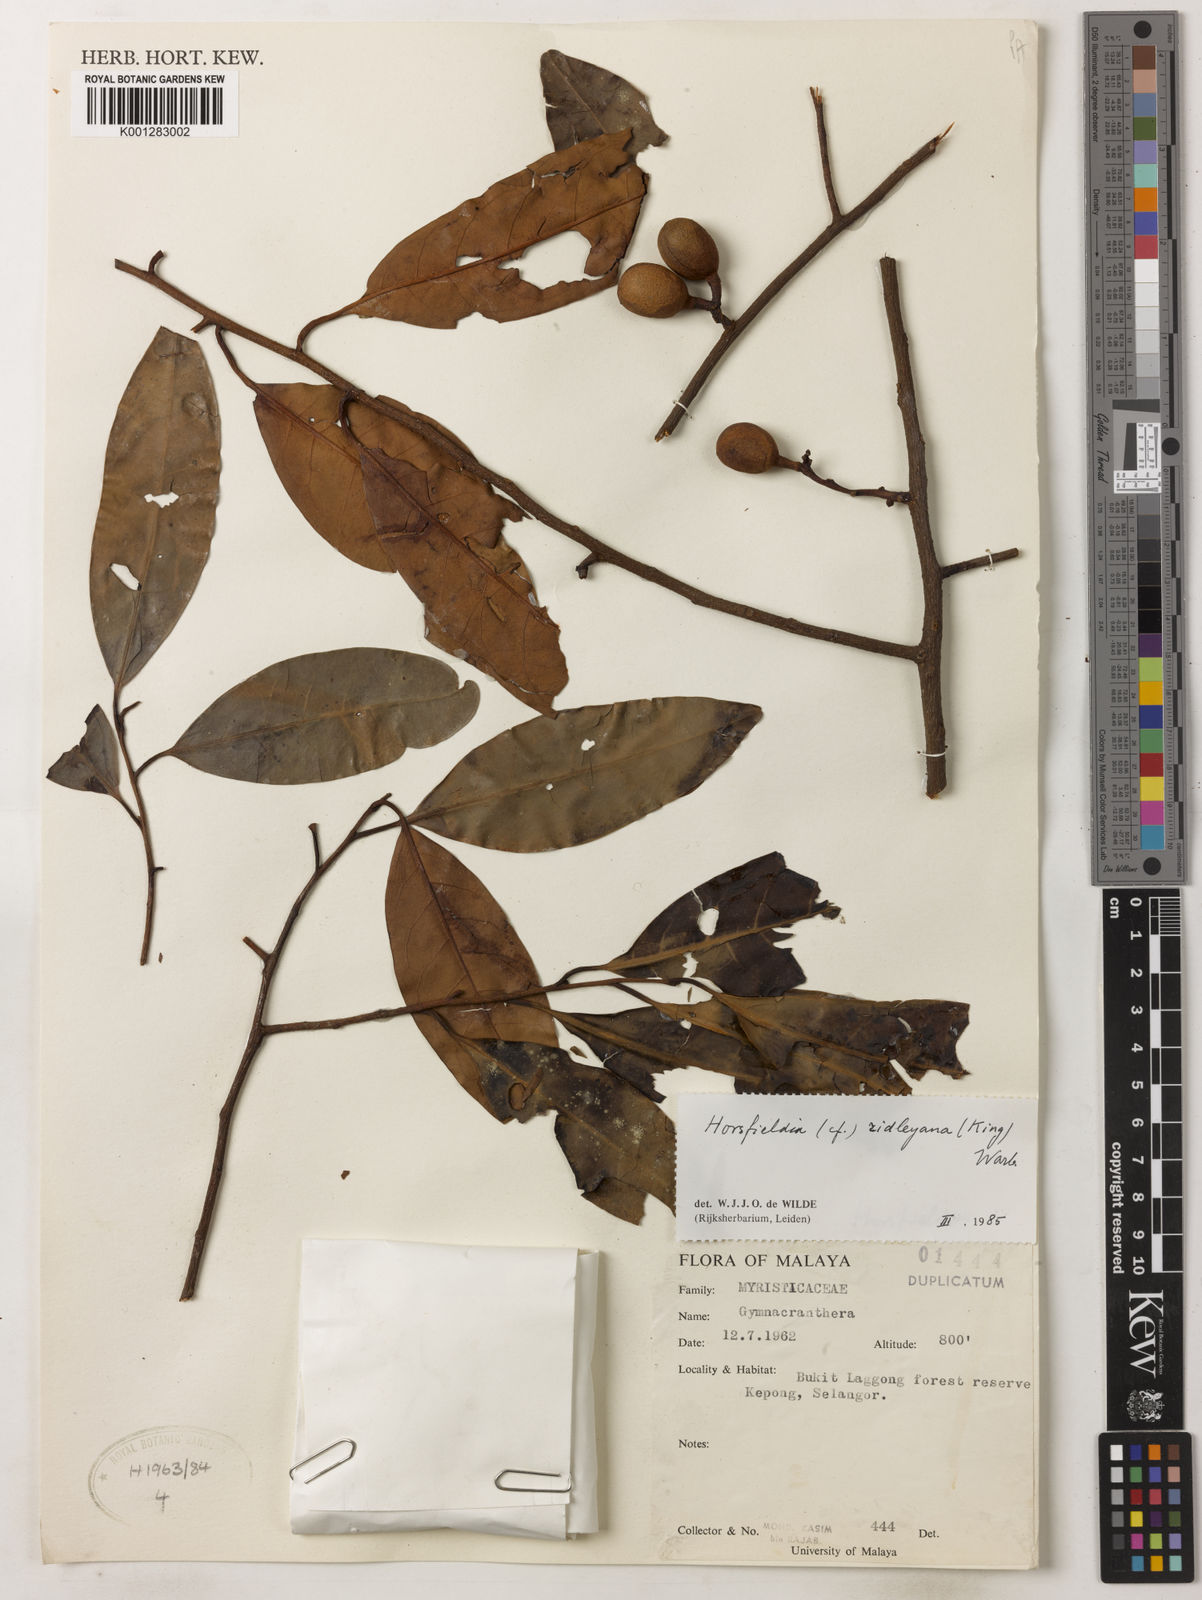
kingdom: Plantae
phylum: Tracheophyta
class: Magnoliopsida
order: Magnoliales
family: Myristicaceae
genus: Horsfieldia
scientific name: Horsfieldia ridleyana
